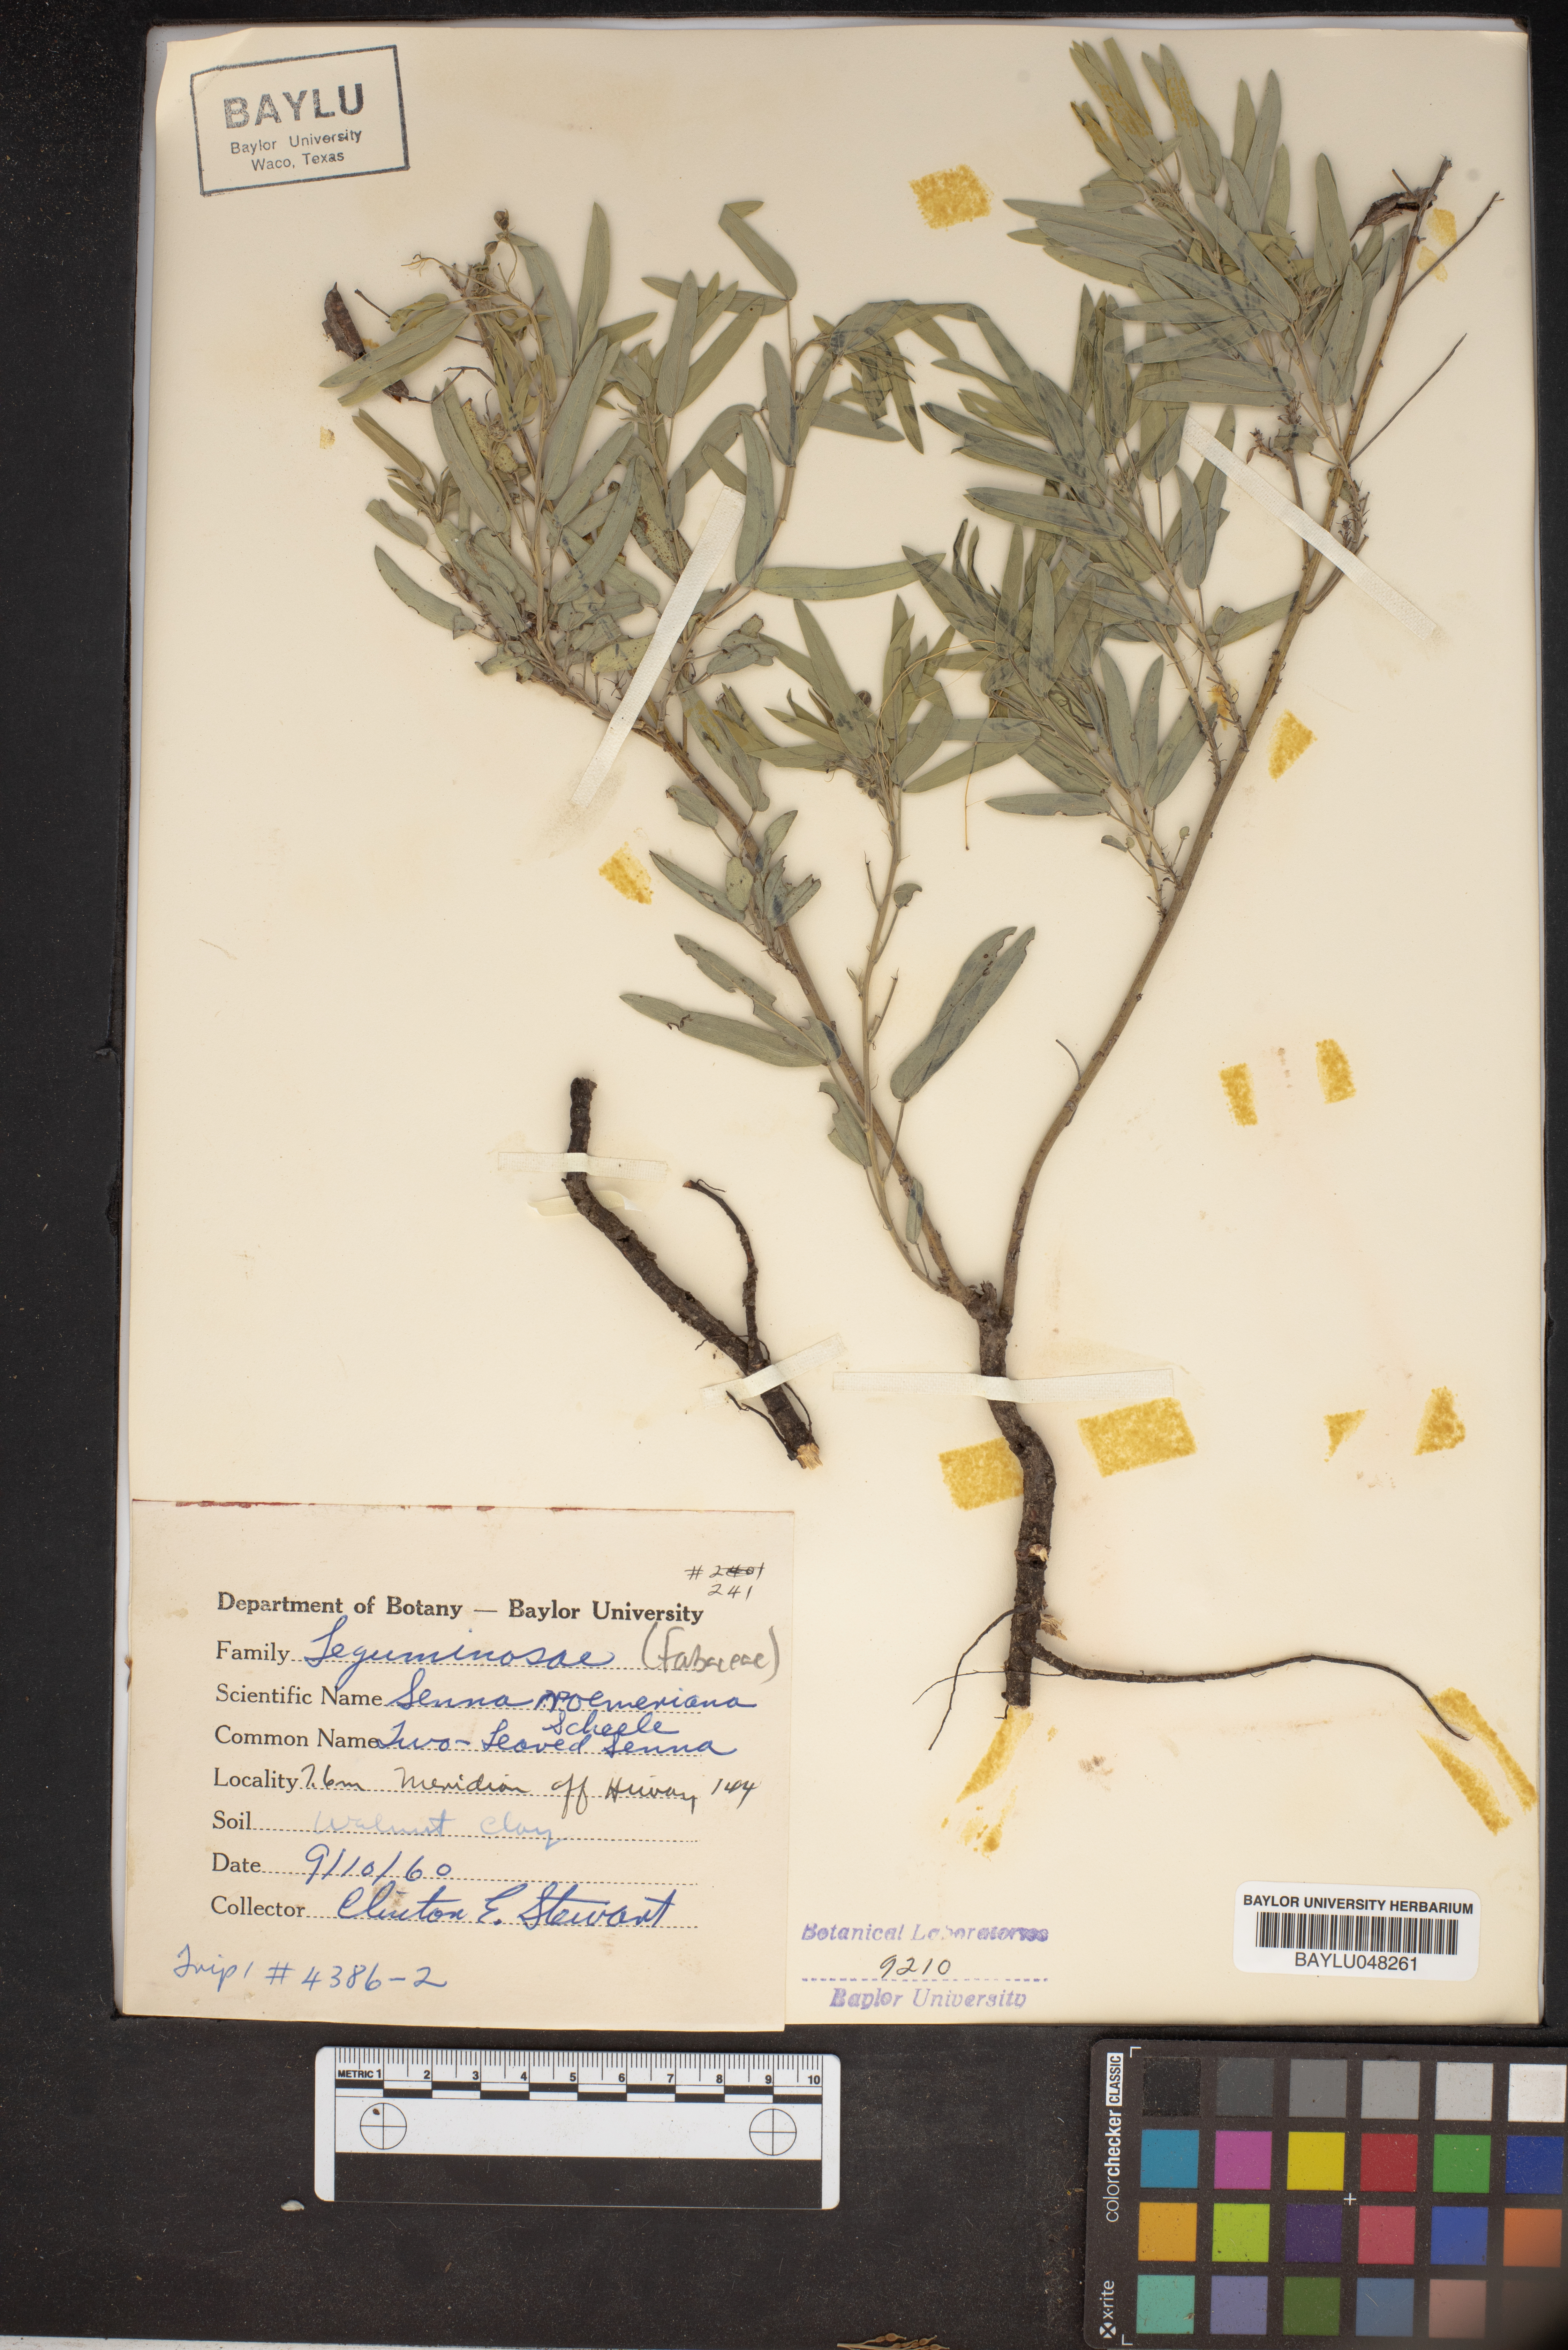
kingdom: Plantae
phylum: Tracheophyta
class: Magnoliopsida
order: Fabales
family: Fabaceae
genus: Senna
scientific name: Senna roemeriana
